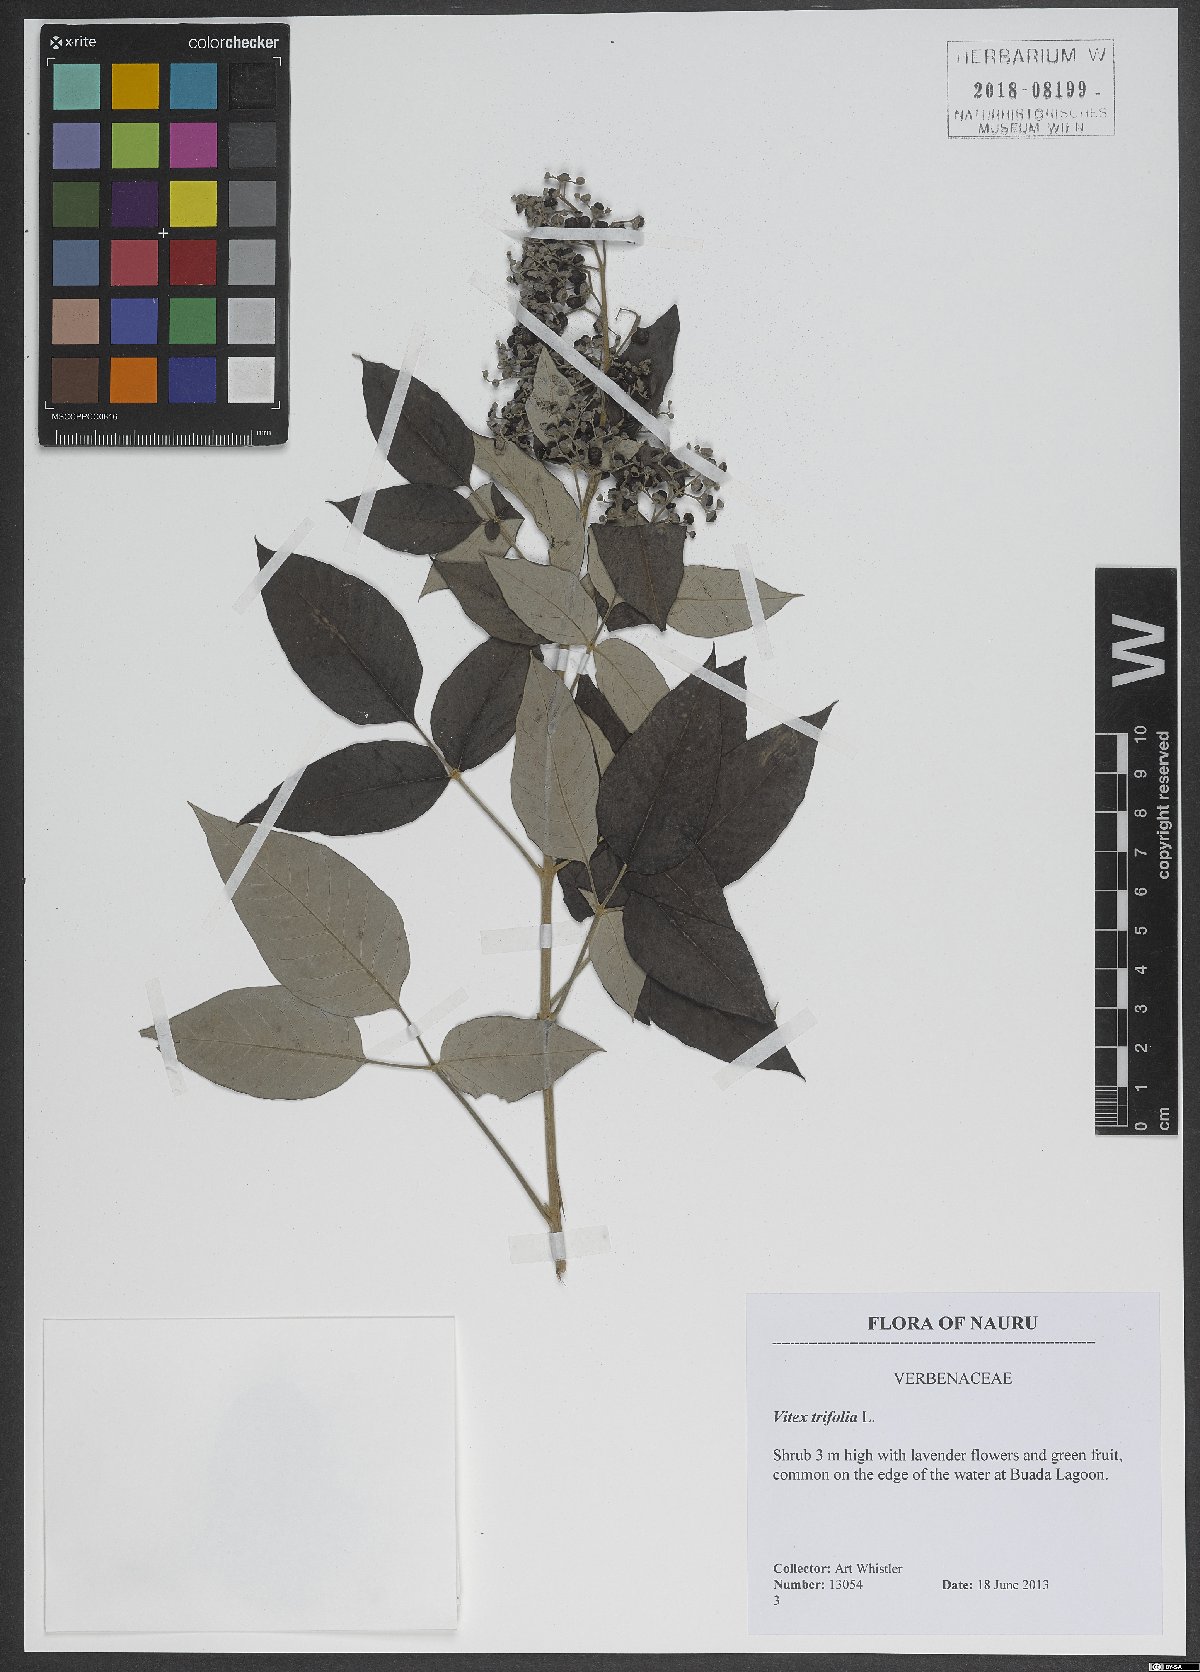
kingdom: Plantae
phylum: Tracheophyta
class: Magnoliopsida
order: Lamiales
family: Lamiaceae
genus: Vitex
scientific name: Vitex trifolia
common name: Simpleleaf chastetree
